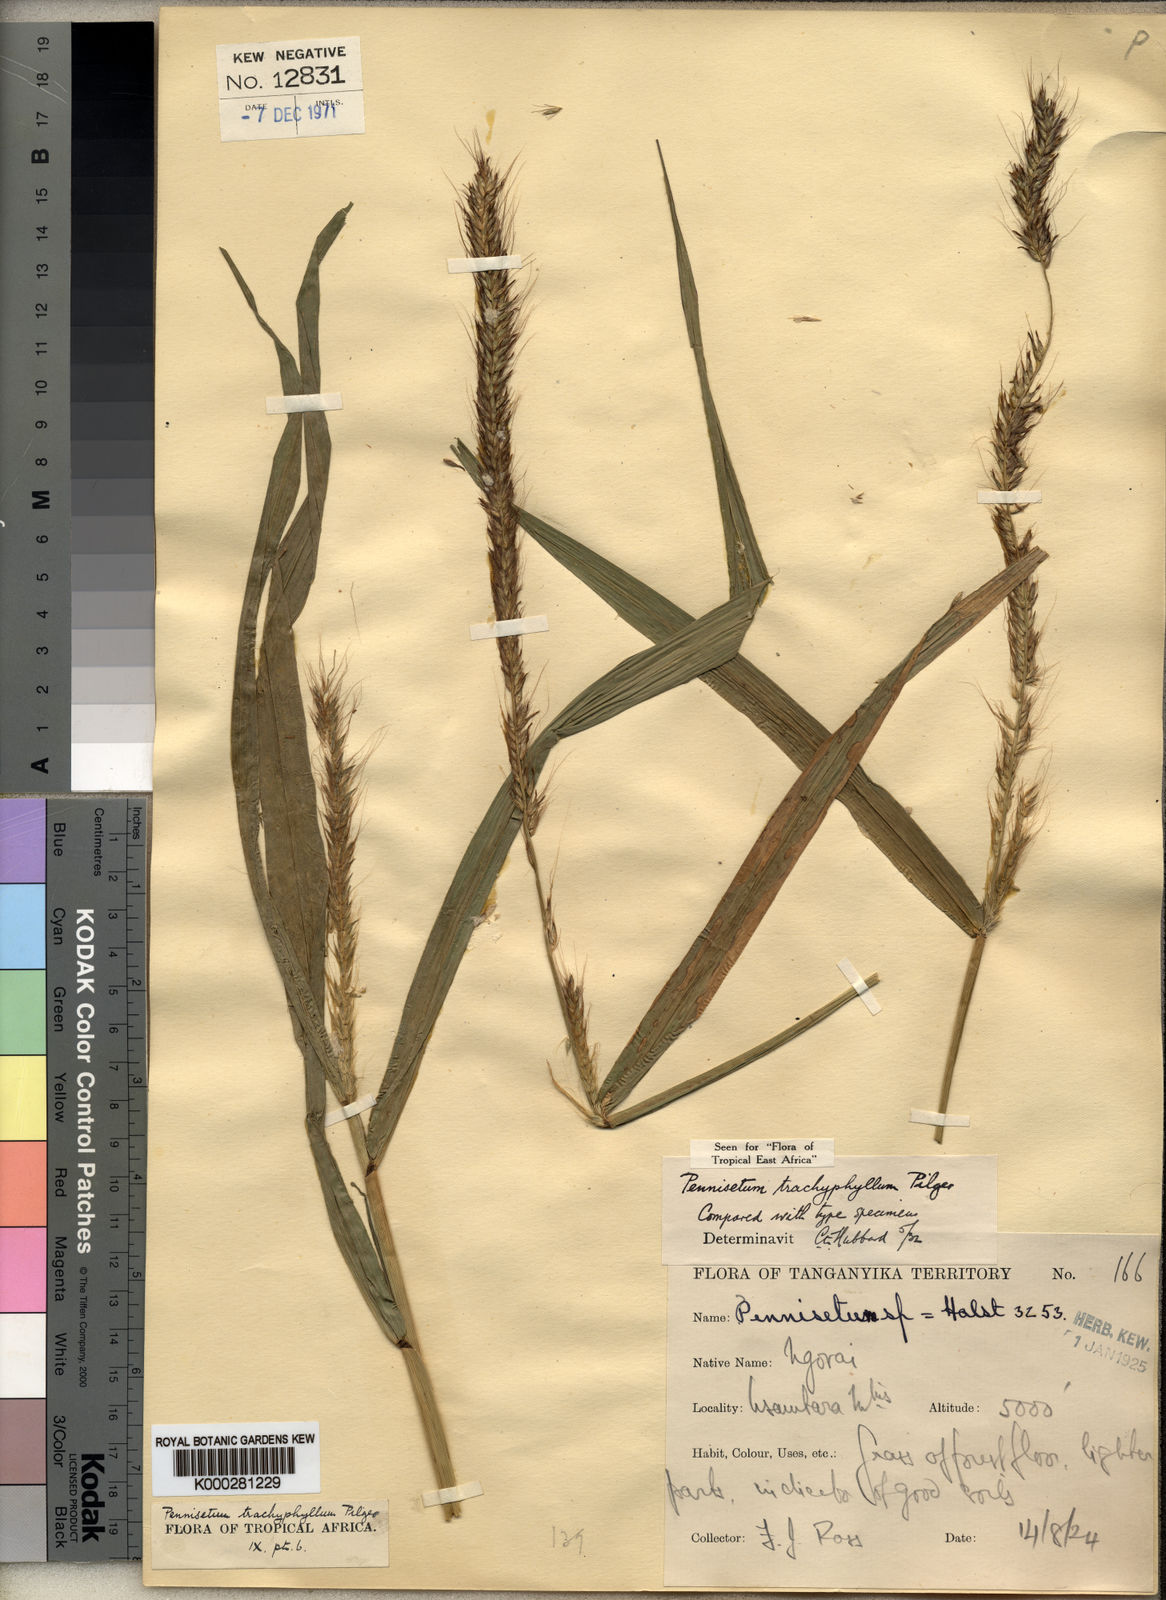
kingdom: Plantae
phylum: Tracheophyta
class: Liliopsida
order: Poales
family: Poaceae
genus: Cenchrus
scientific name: Cenchrus trachyphyllus
